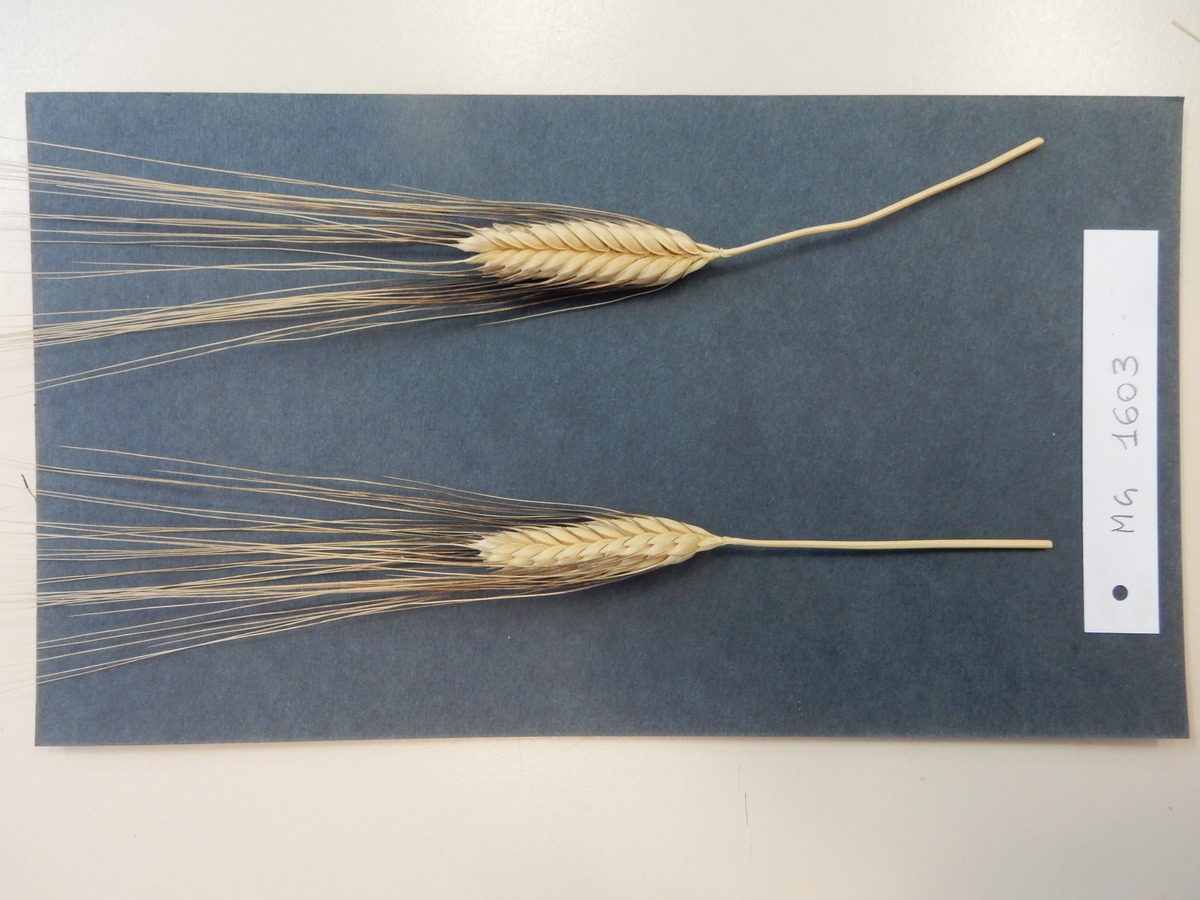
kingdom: Plantae
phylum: Tracheophyta
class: Liliopsida
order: Poales
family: Poaceae
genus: Triticum
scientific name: Triticum turgidum
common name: Wheat
